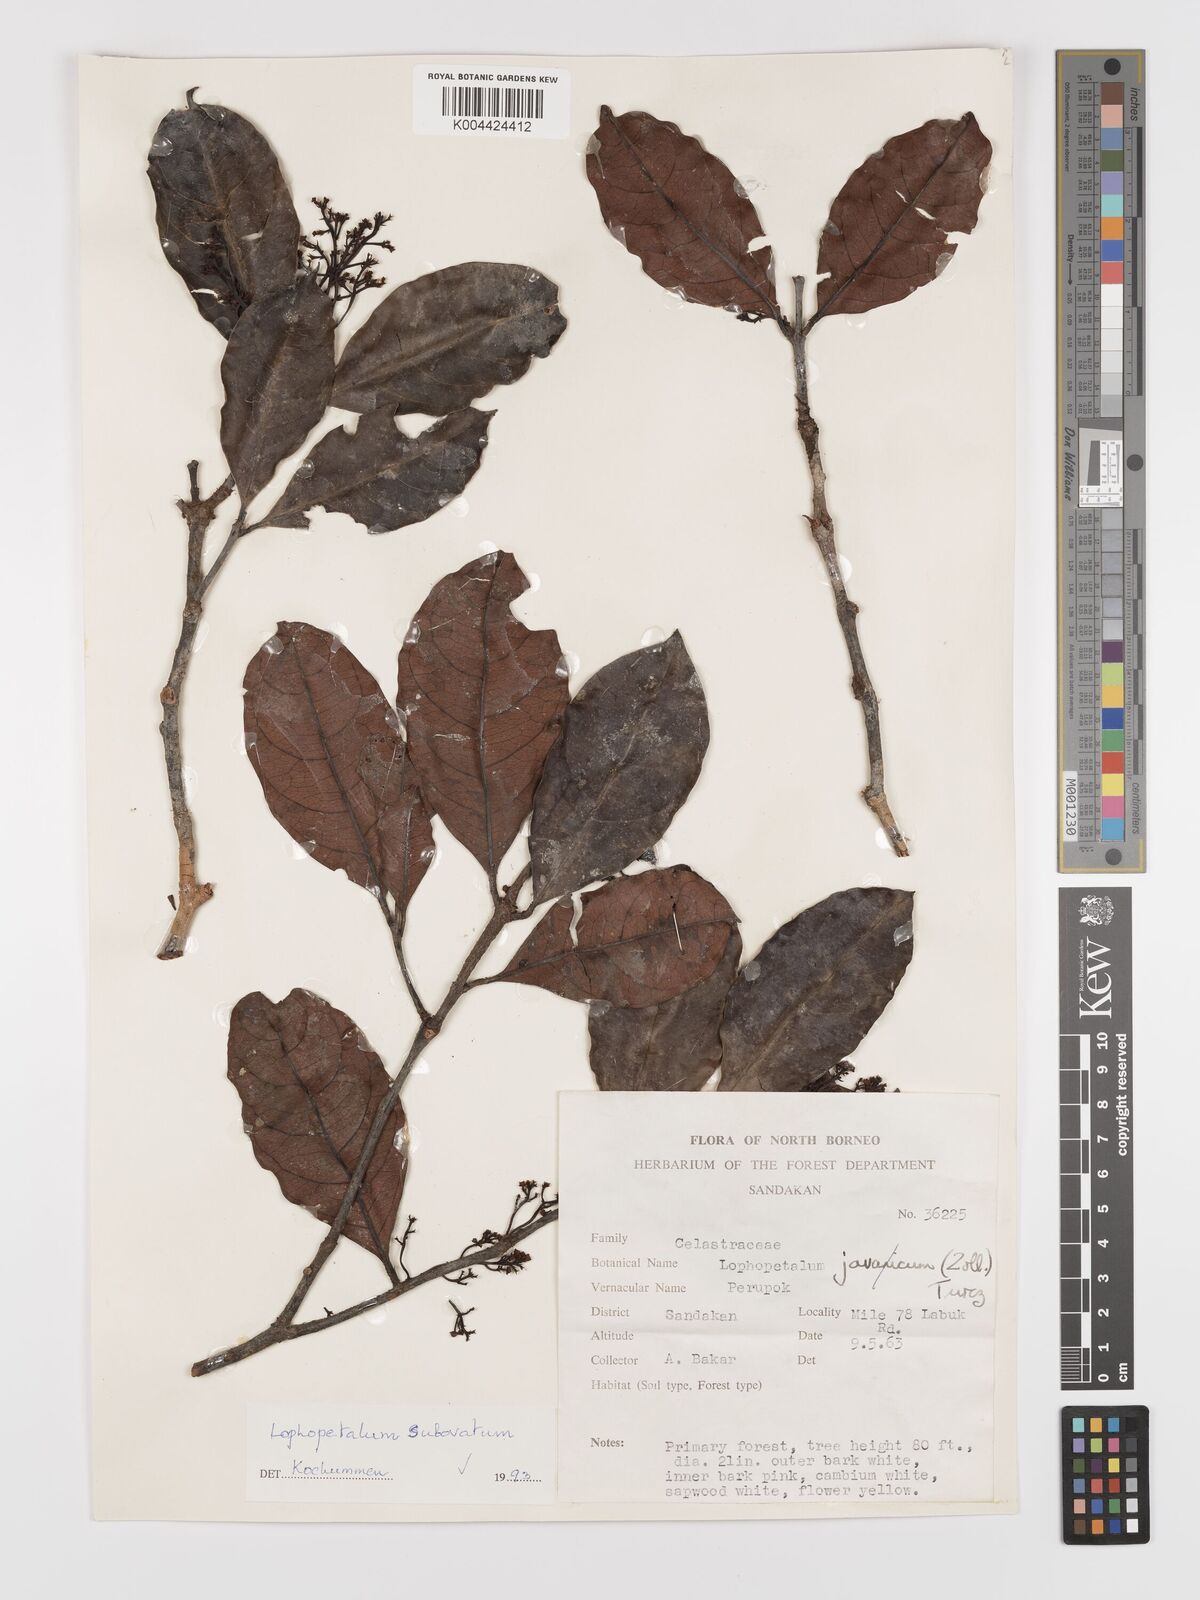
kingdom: Plantae
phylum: Tracheophyta
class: Magnoliopsida
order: Celastrales
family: Celastraceae
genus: Lophopetalum
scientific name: Lophopetalum
